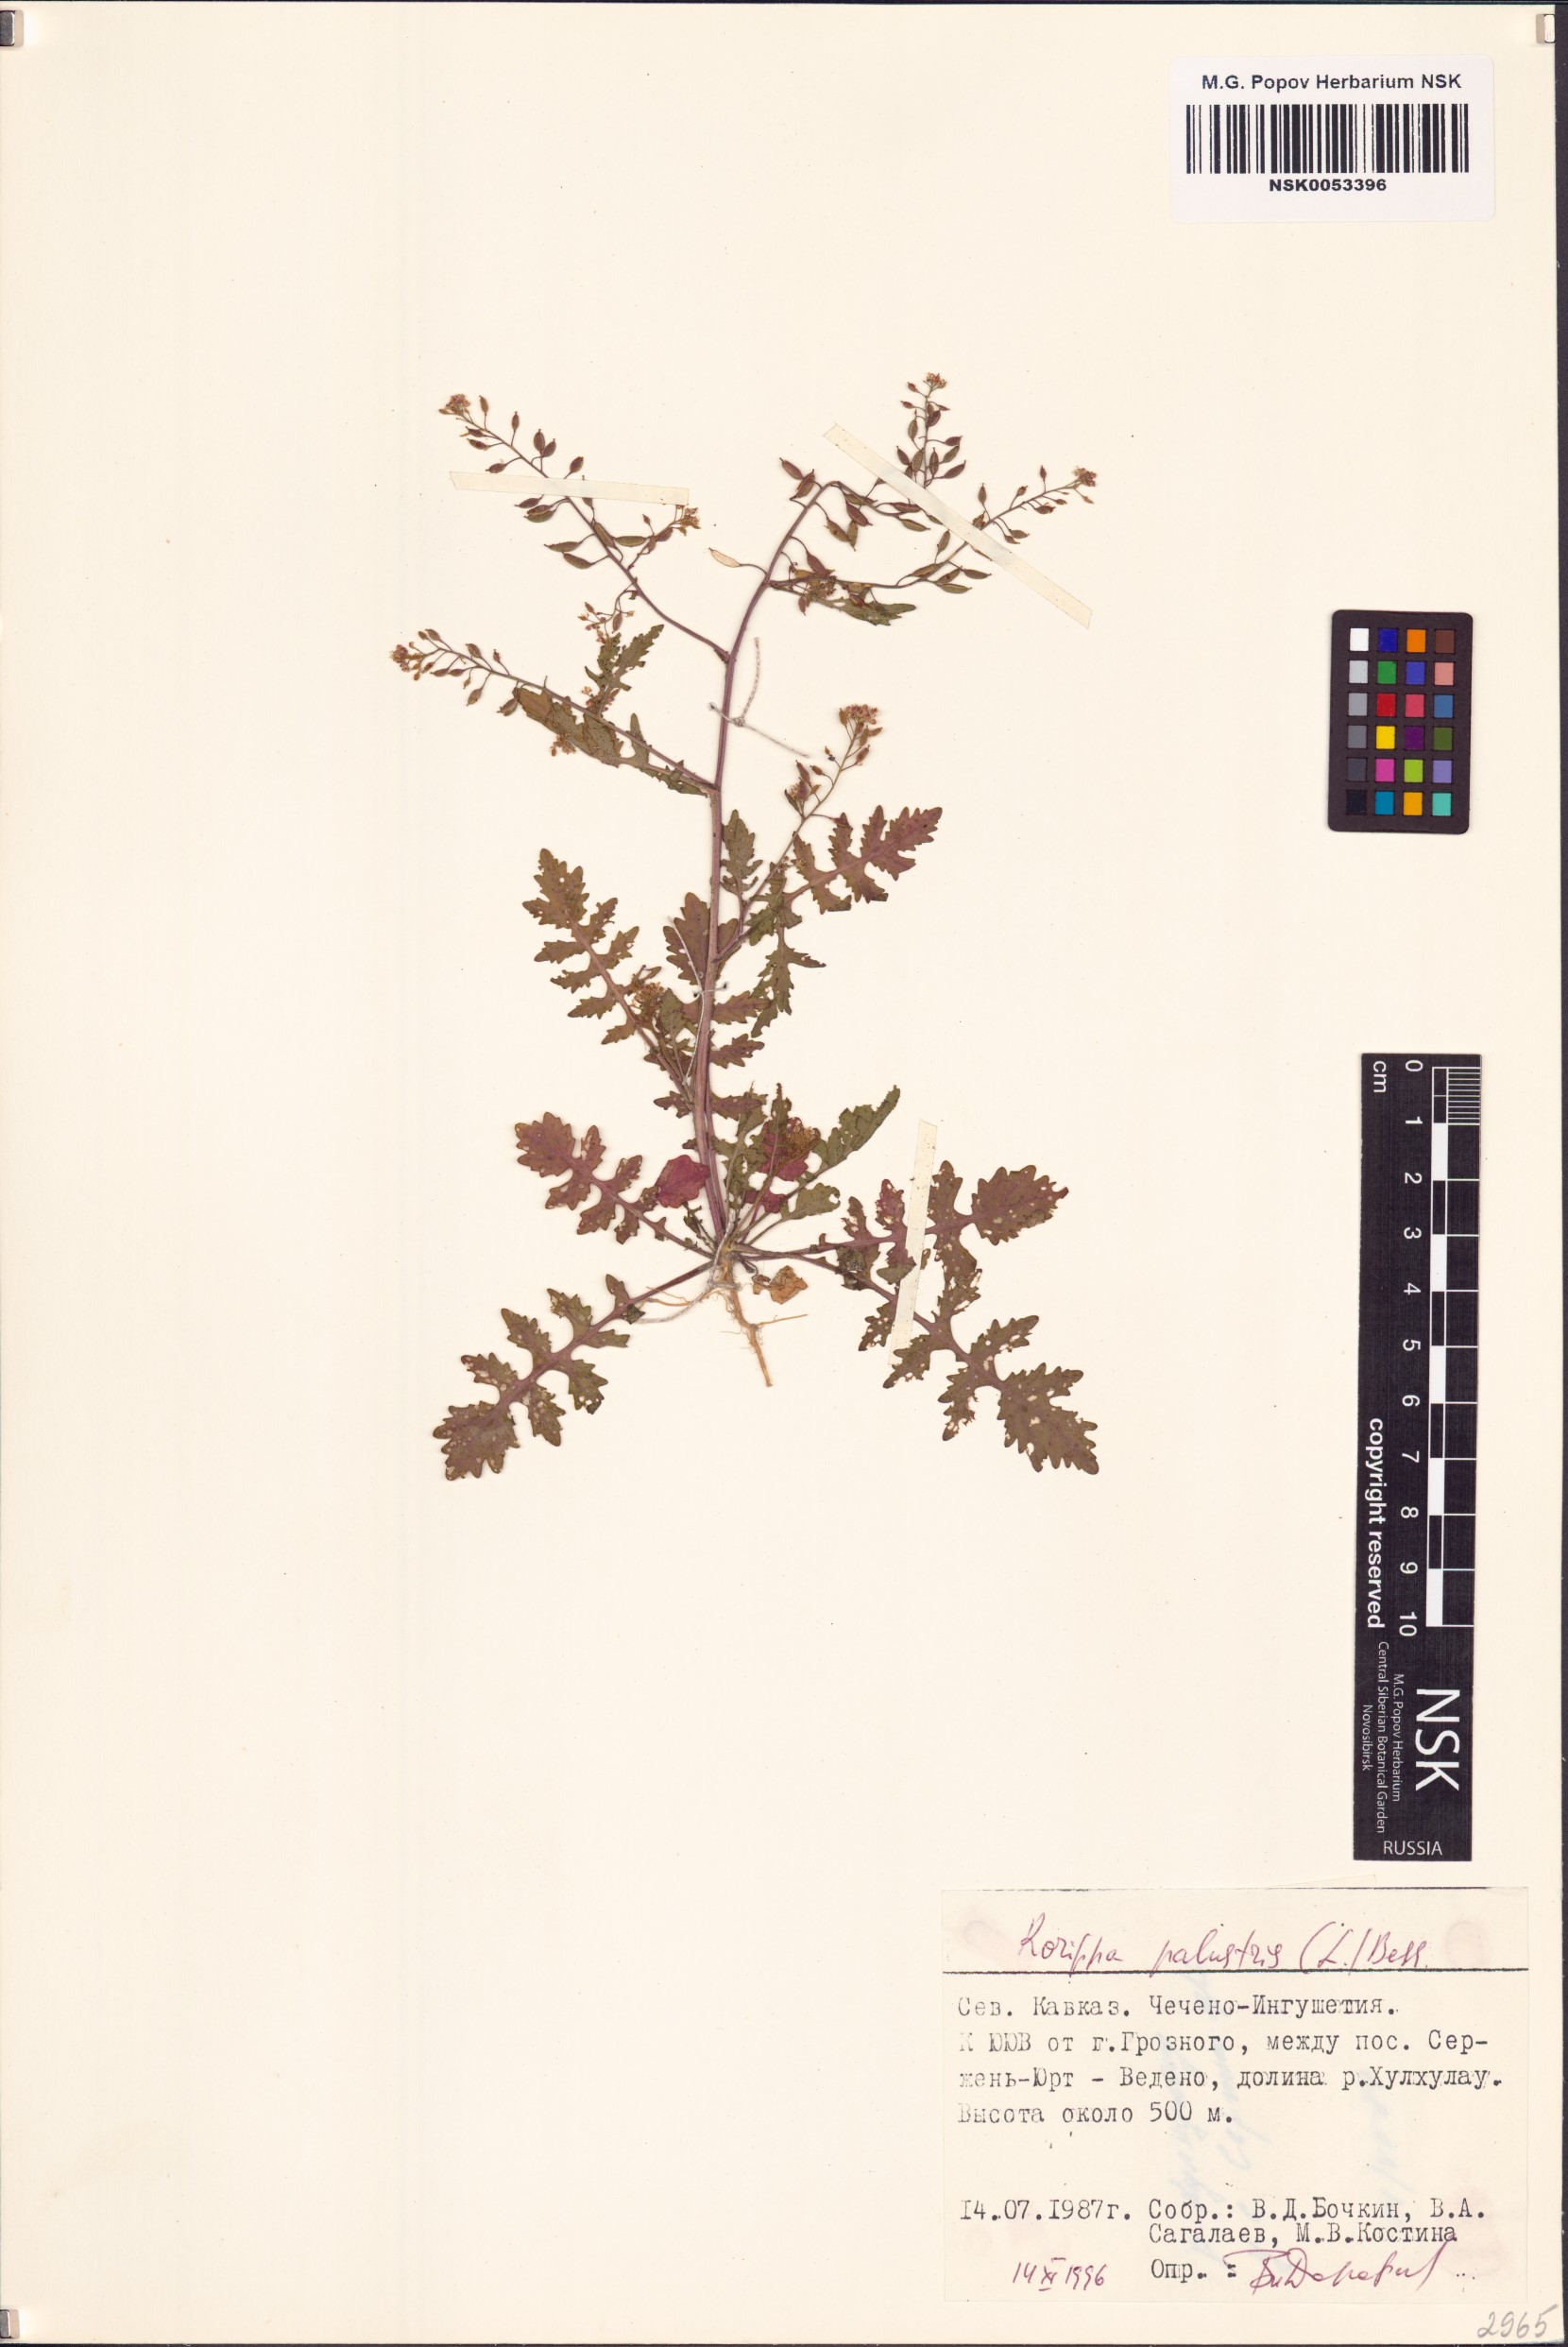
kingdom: Plantae
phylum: Tracheophyta
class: Magnoliopsida
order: Brassicales
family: Brassicaceae
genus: Rorippa
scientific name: Rorippa palustris
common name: Marsh yellow-cress
